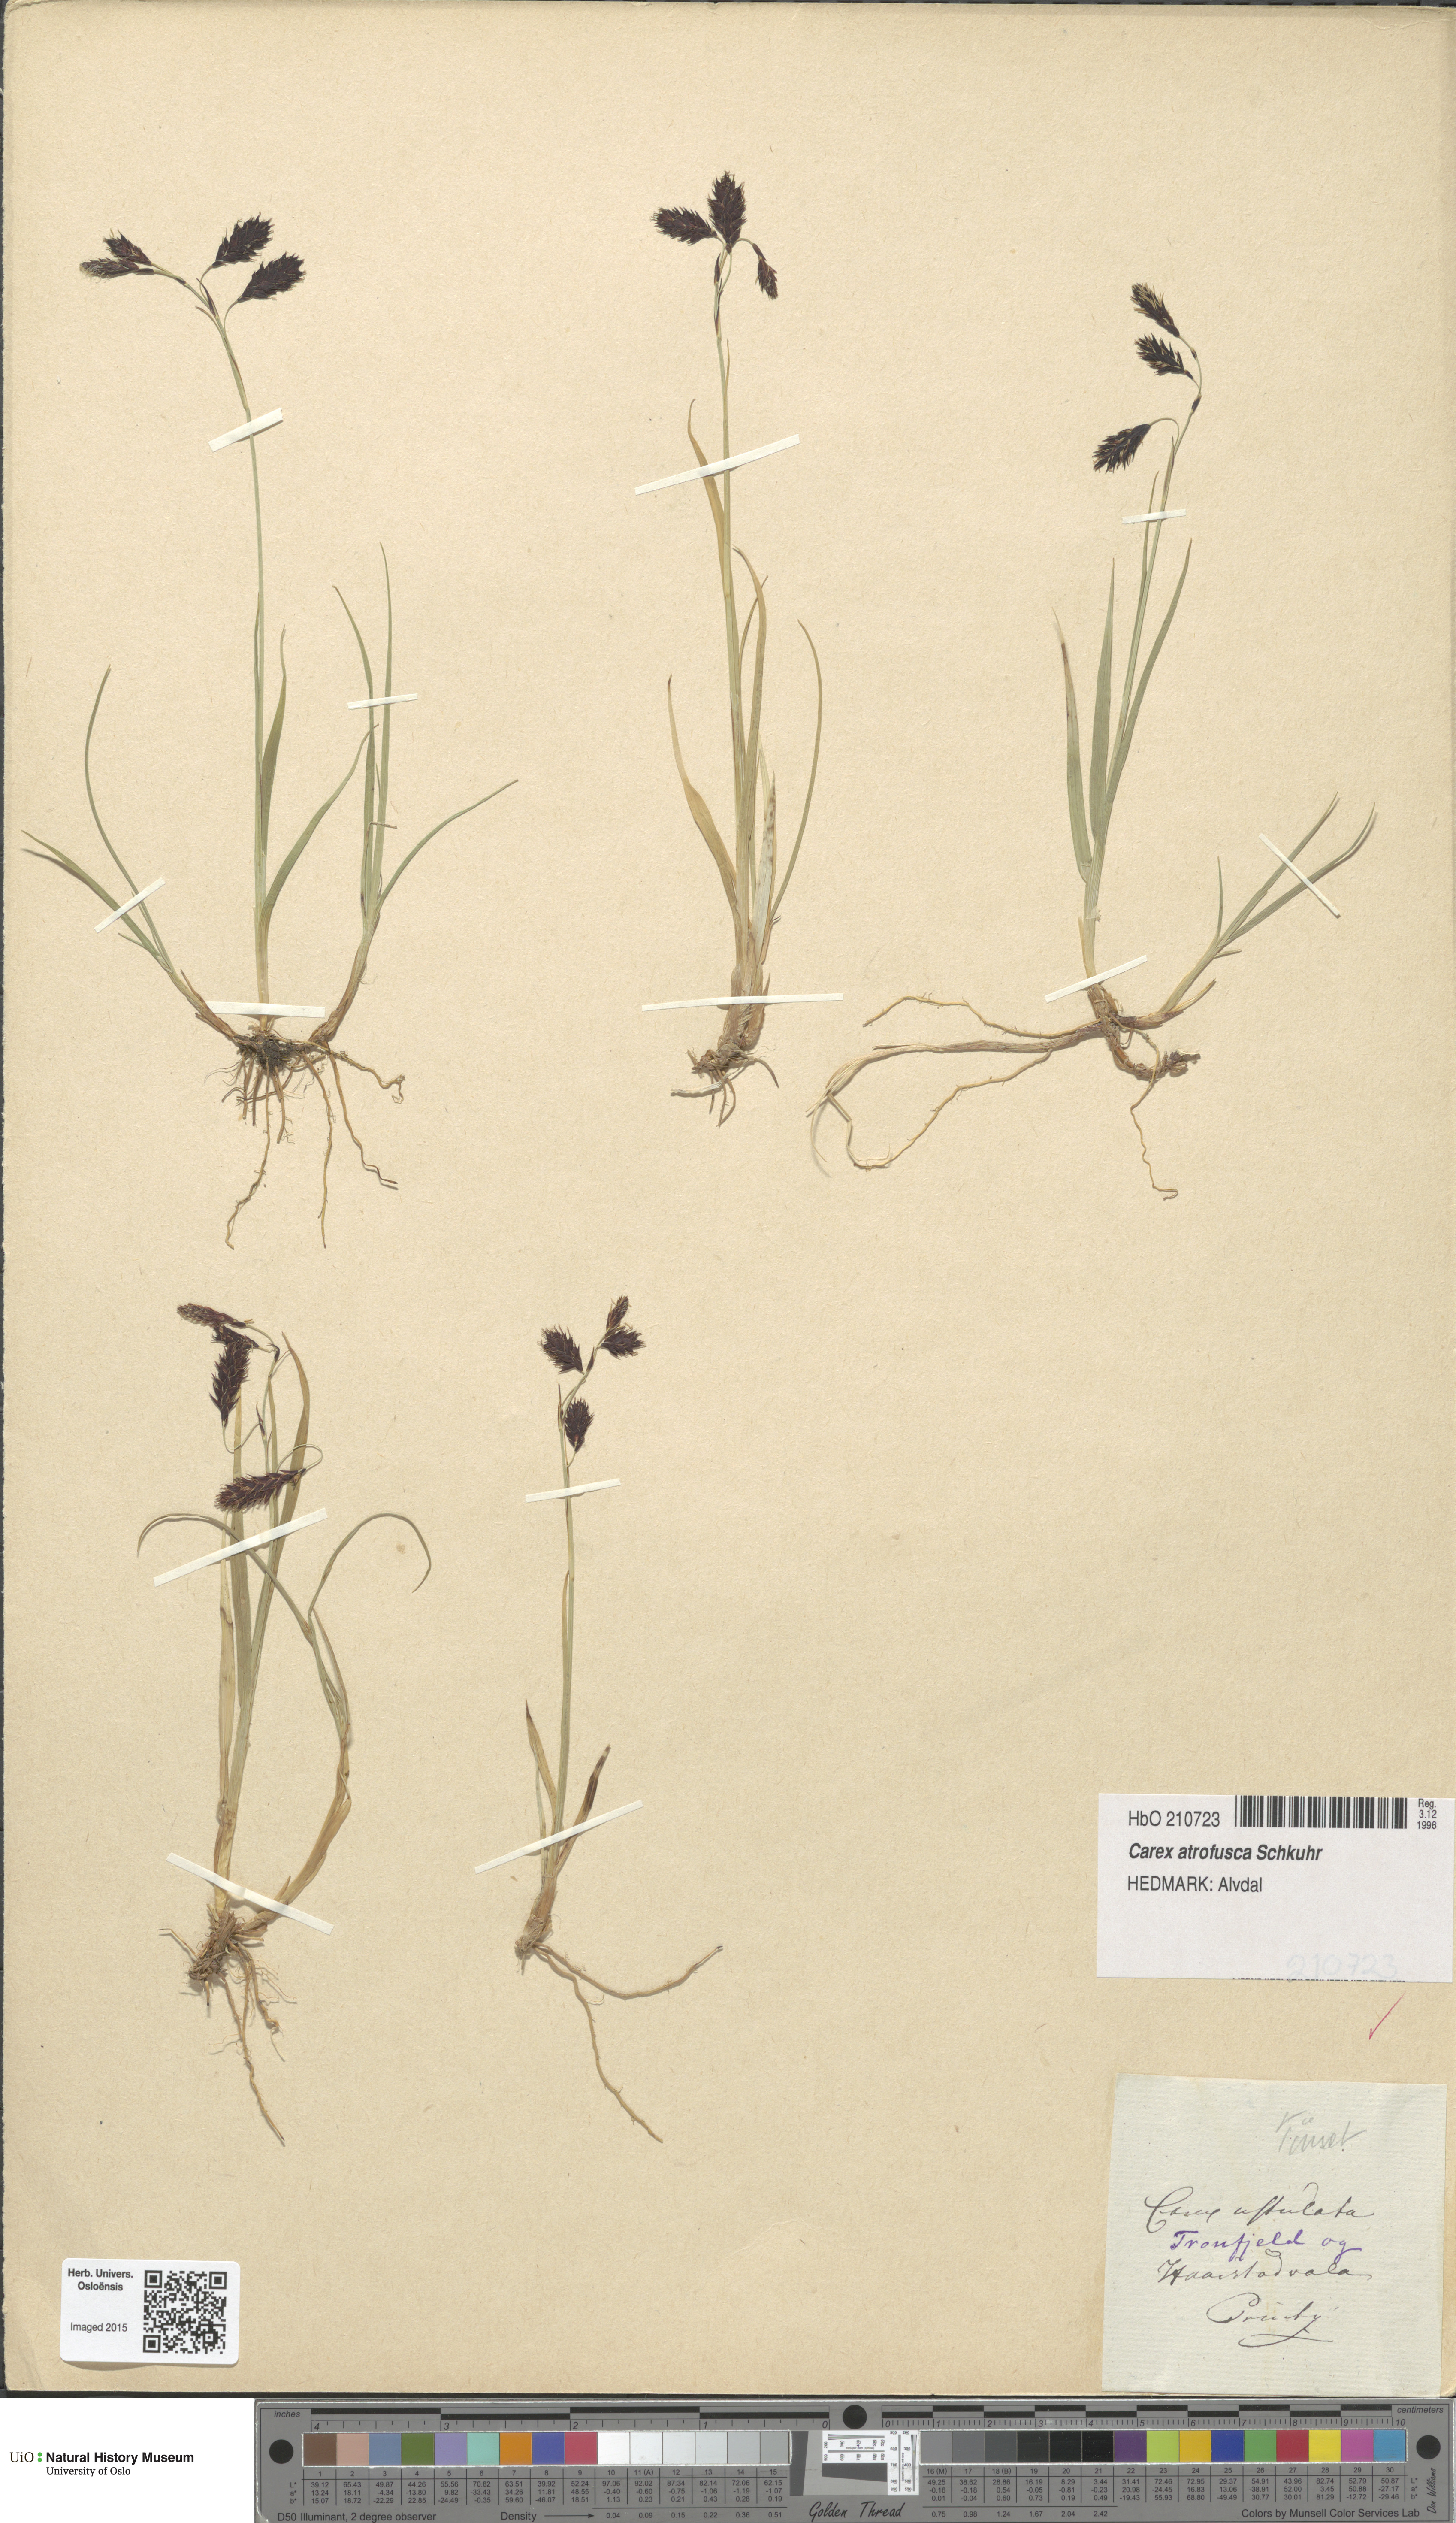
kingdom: Plantae
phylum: Tracheophyta
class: Liliopsida
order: Poales
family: Cyperaceae
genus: Carex
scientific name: Carex atrofusca
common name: Scorched alpine-sedge
